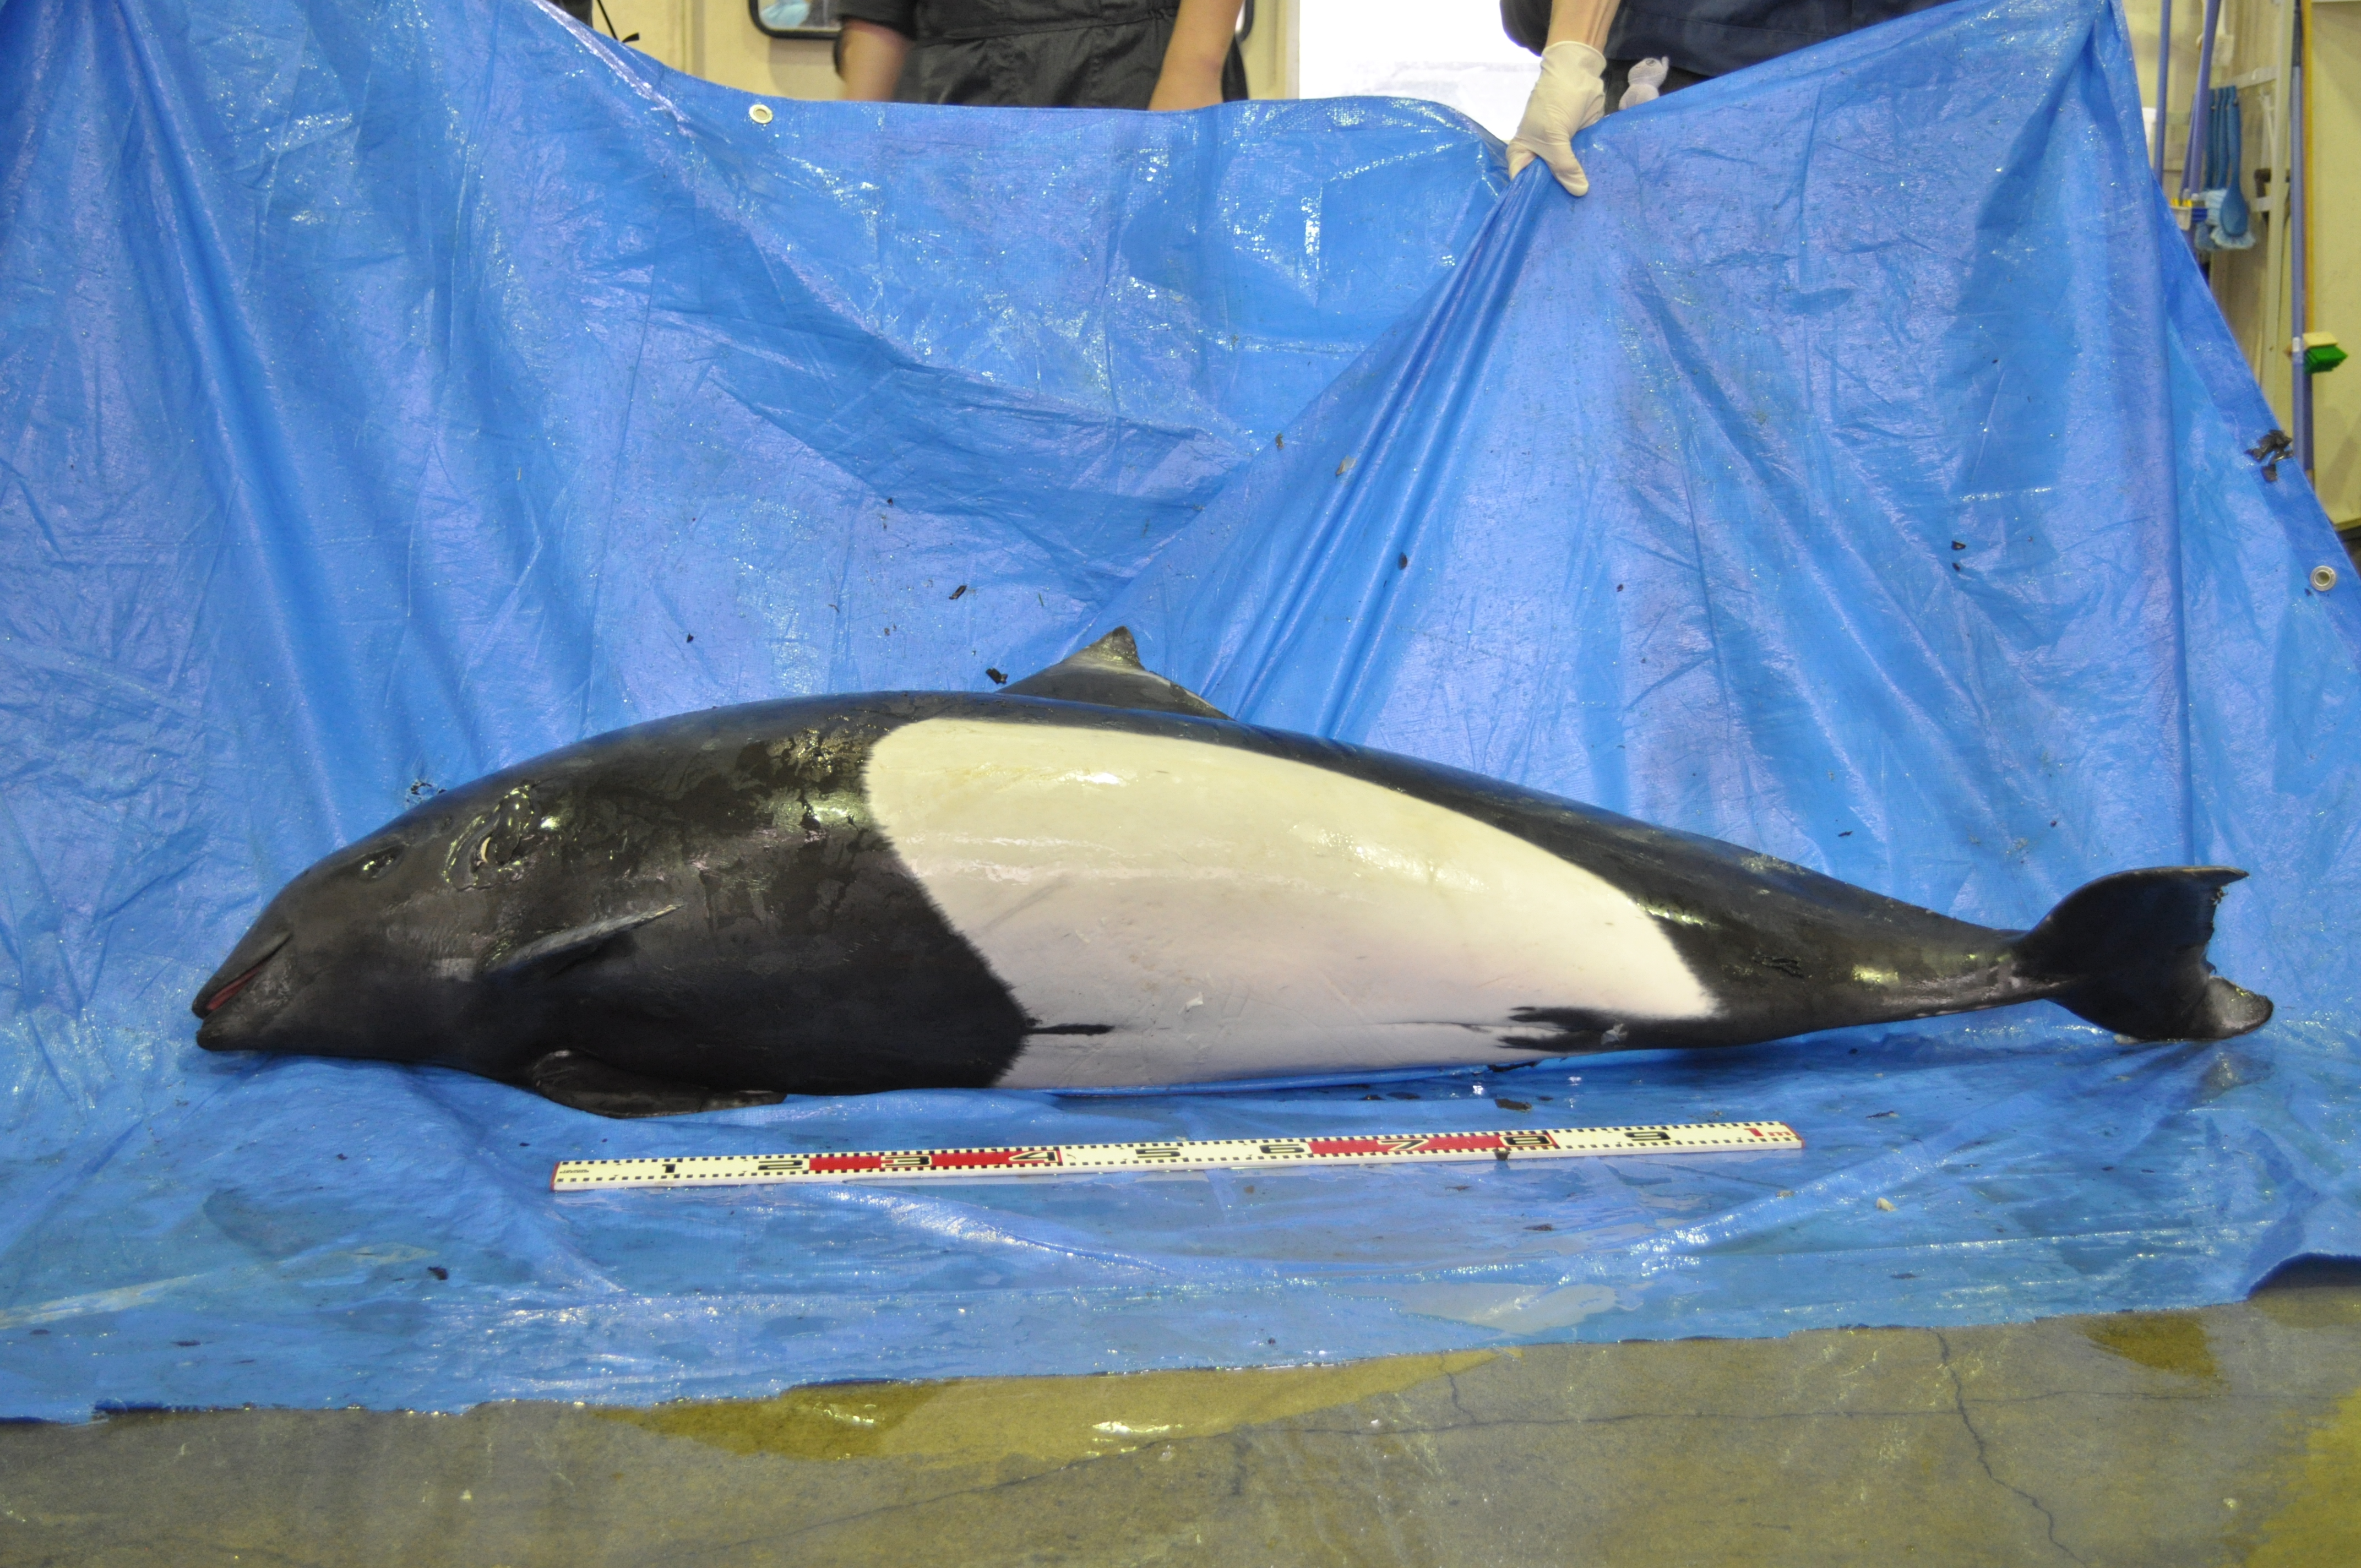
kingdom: Animalia
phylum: Chordata
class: Mammalia
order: Cetacea
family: Phocoenidae
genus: Phocoenoides
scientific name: Phocoenoides dalli
